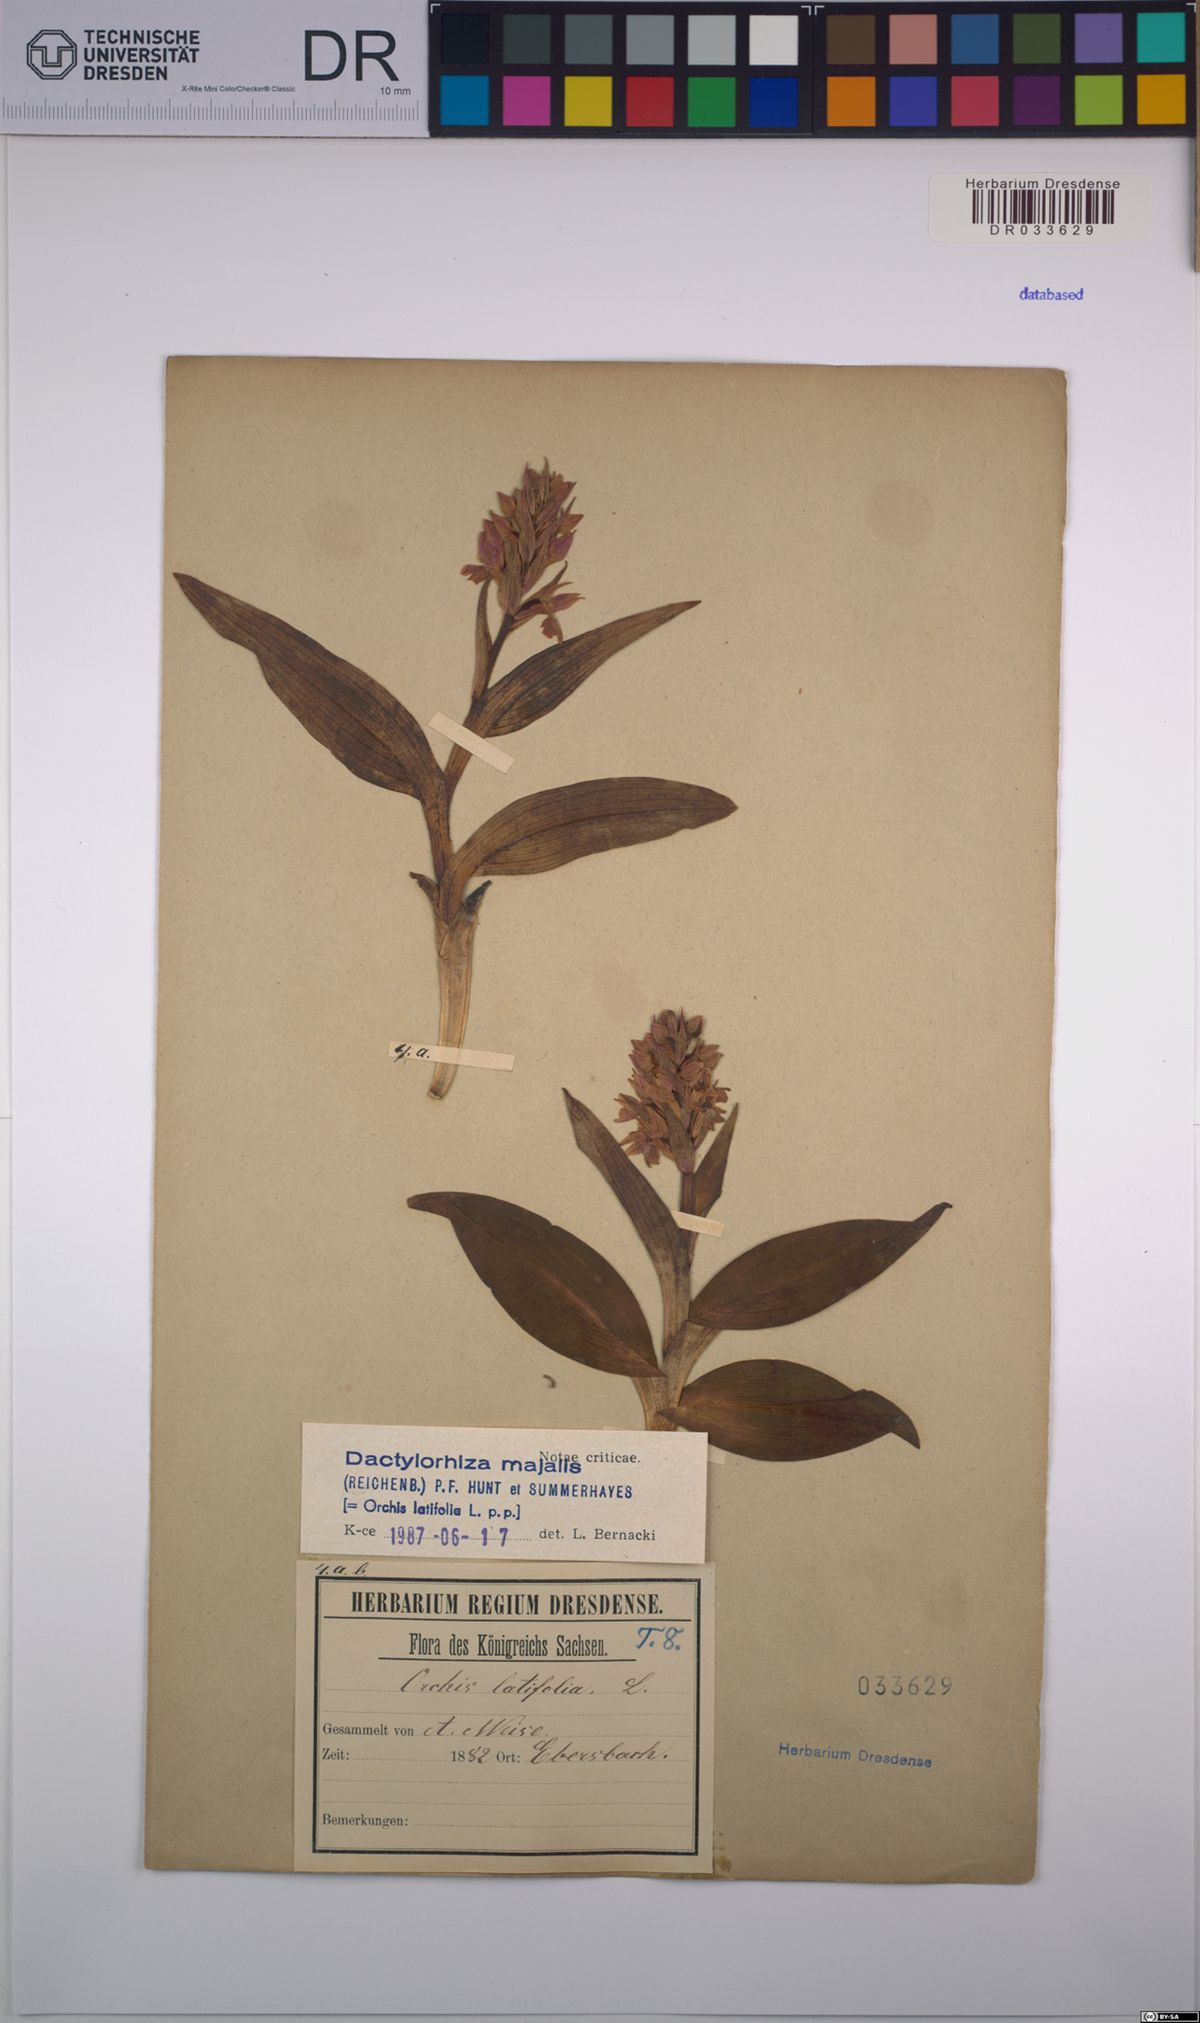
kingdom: Plantae
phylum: Tracheophyta
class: Liliopsida
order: Asparagales
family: Orchidaceae
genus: Dactylorhiza
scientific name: Dactylorhiza majalis
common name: Marsh orchid
